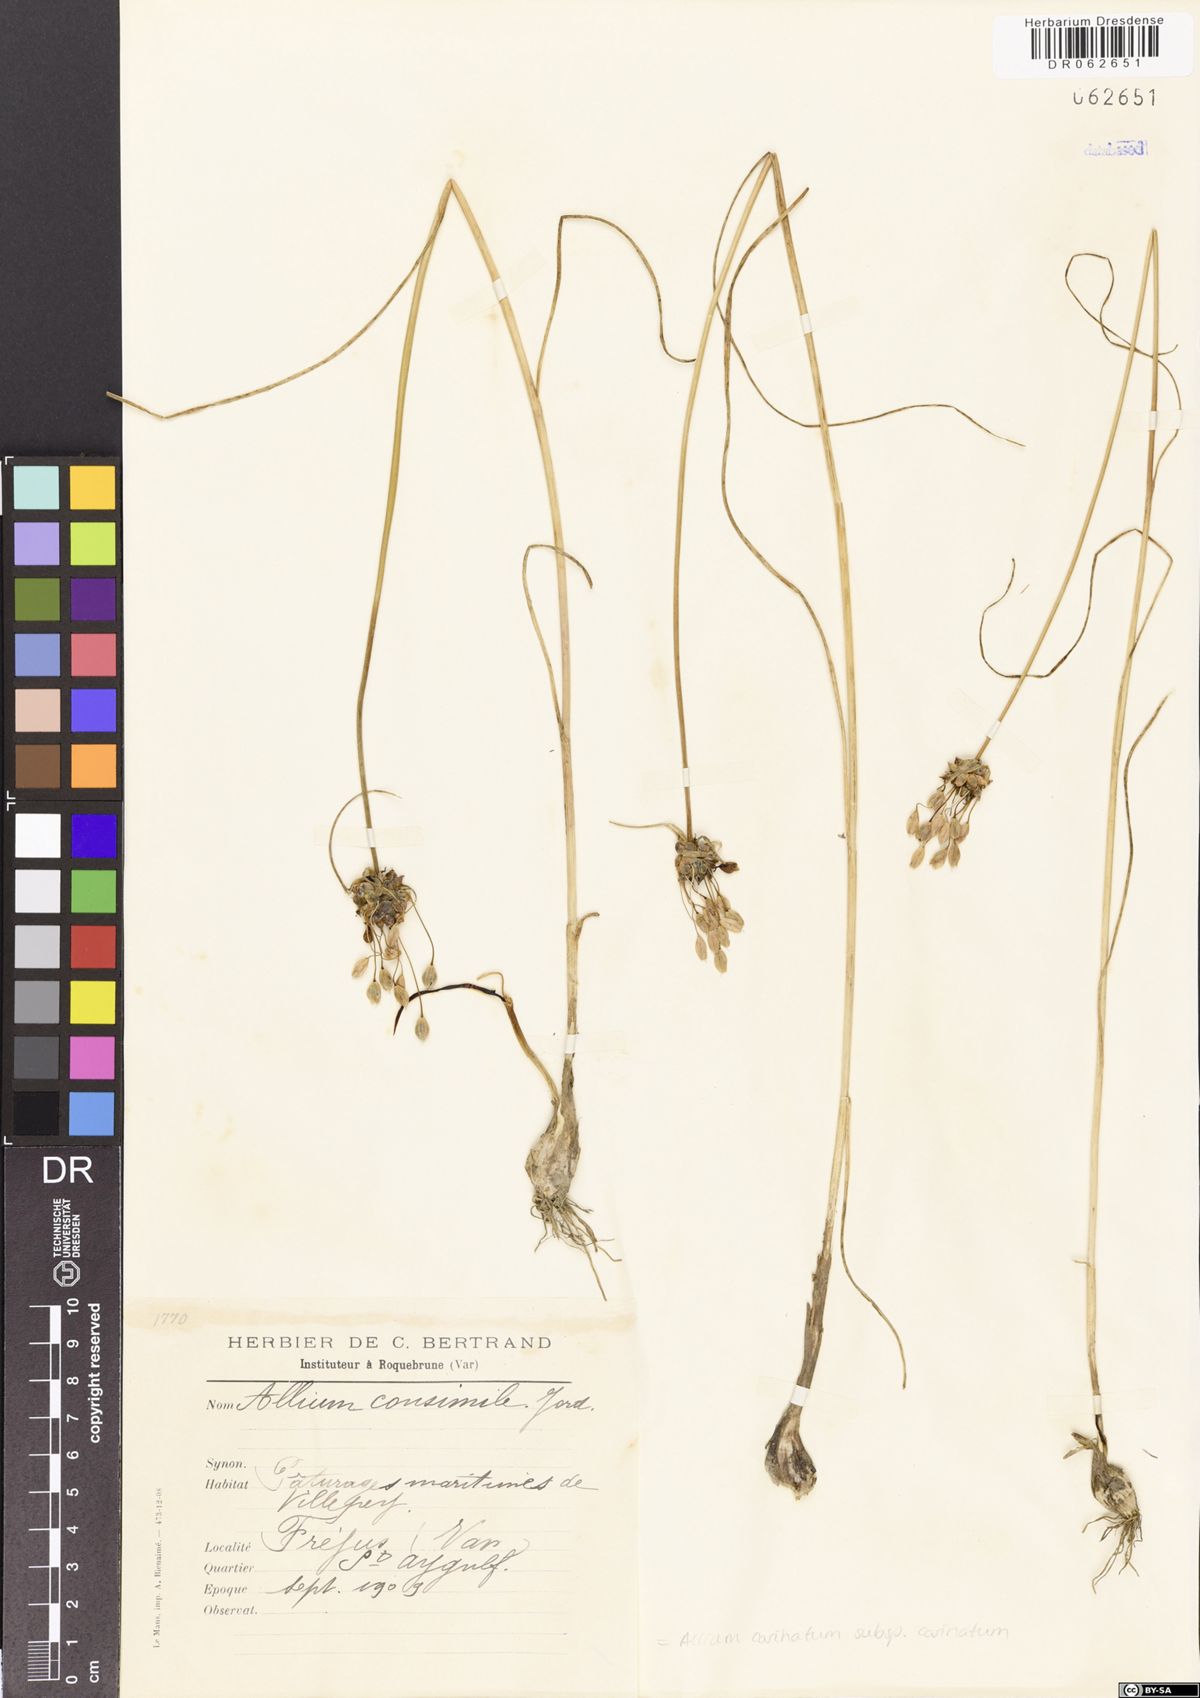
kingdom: Plantae
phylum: Tracheophyta
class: Liliopsida
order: Asparagales
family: Amaryllidaceae
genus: Allium
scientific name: Allium carinatum
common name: Keeled garlic
